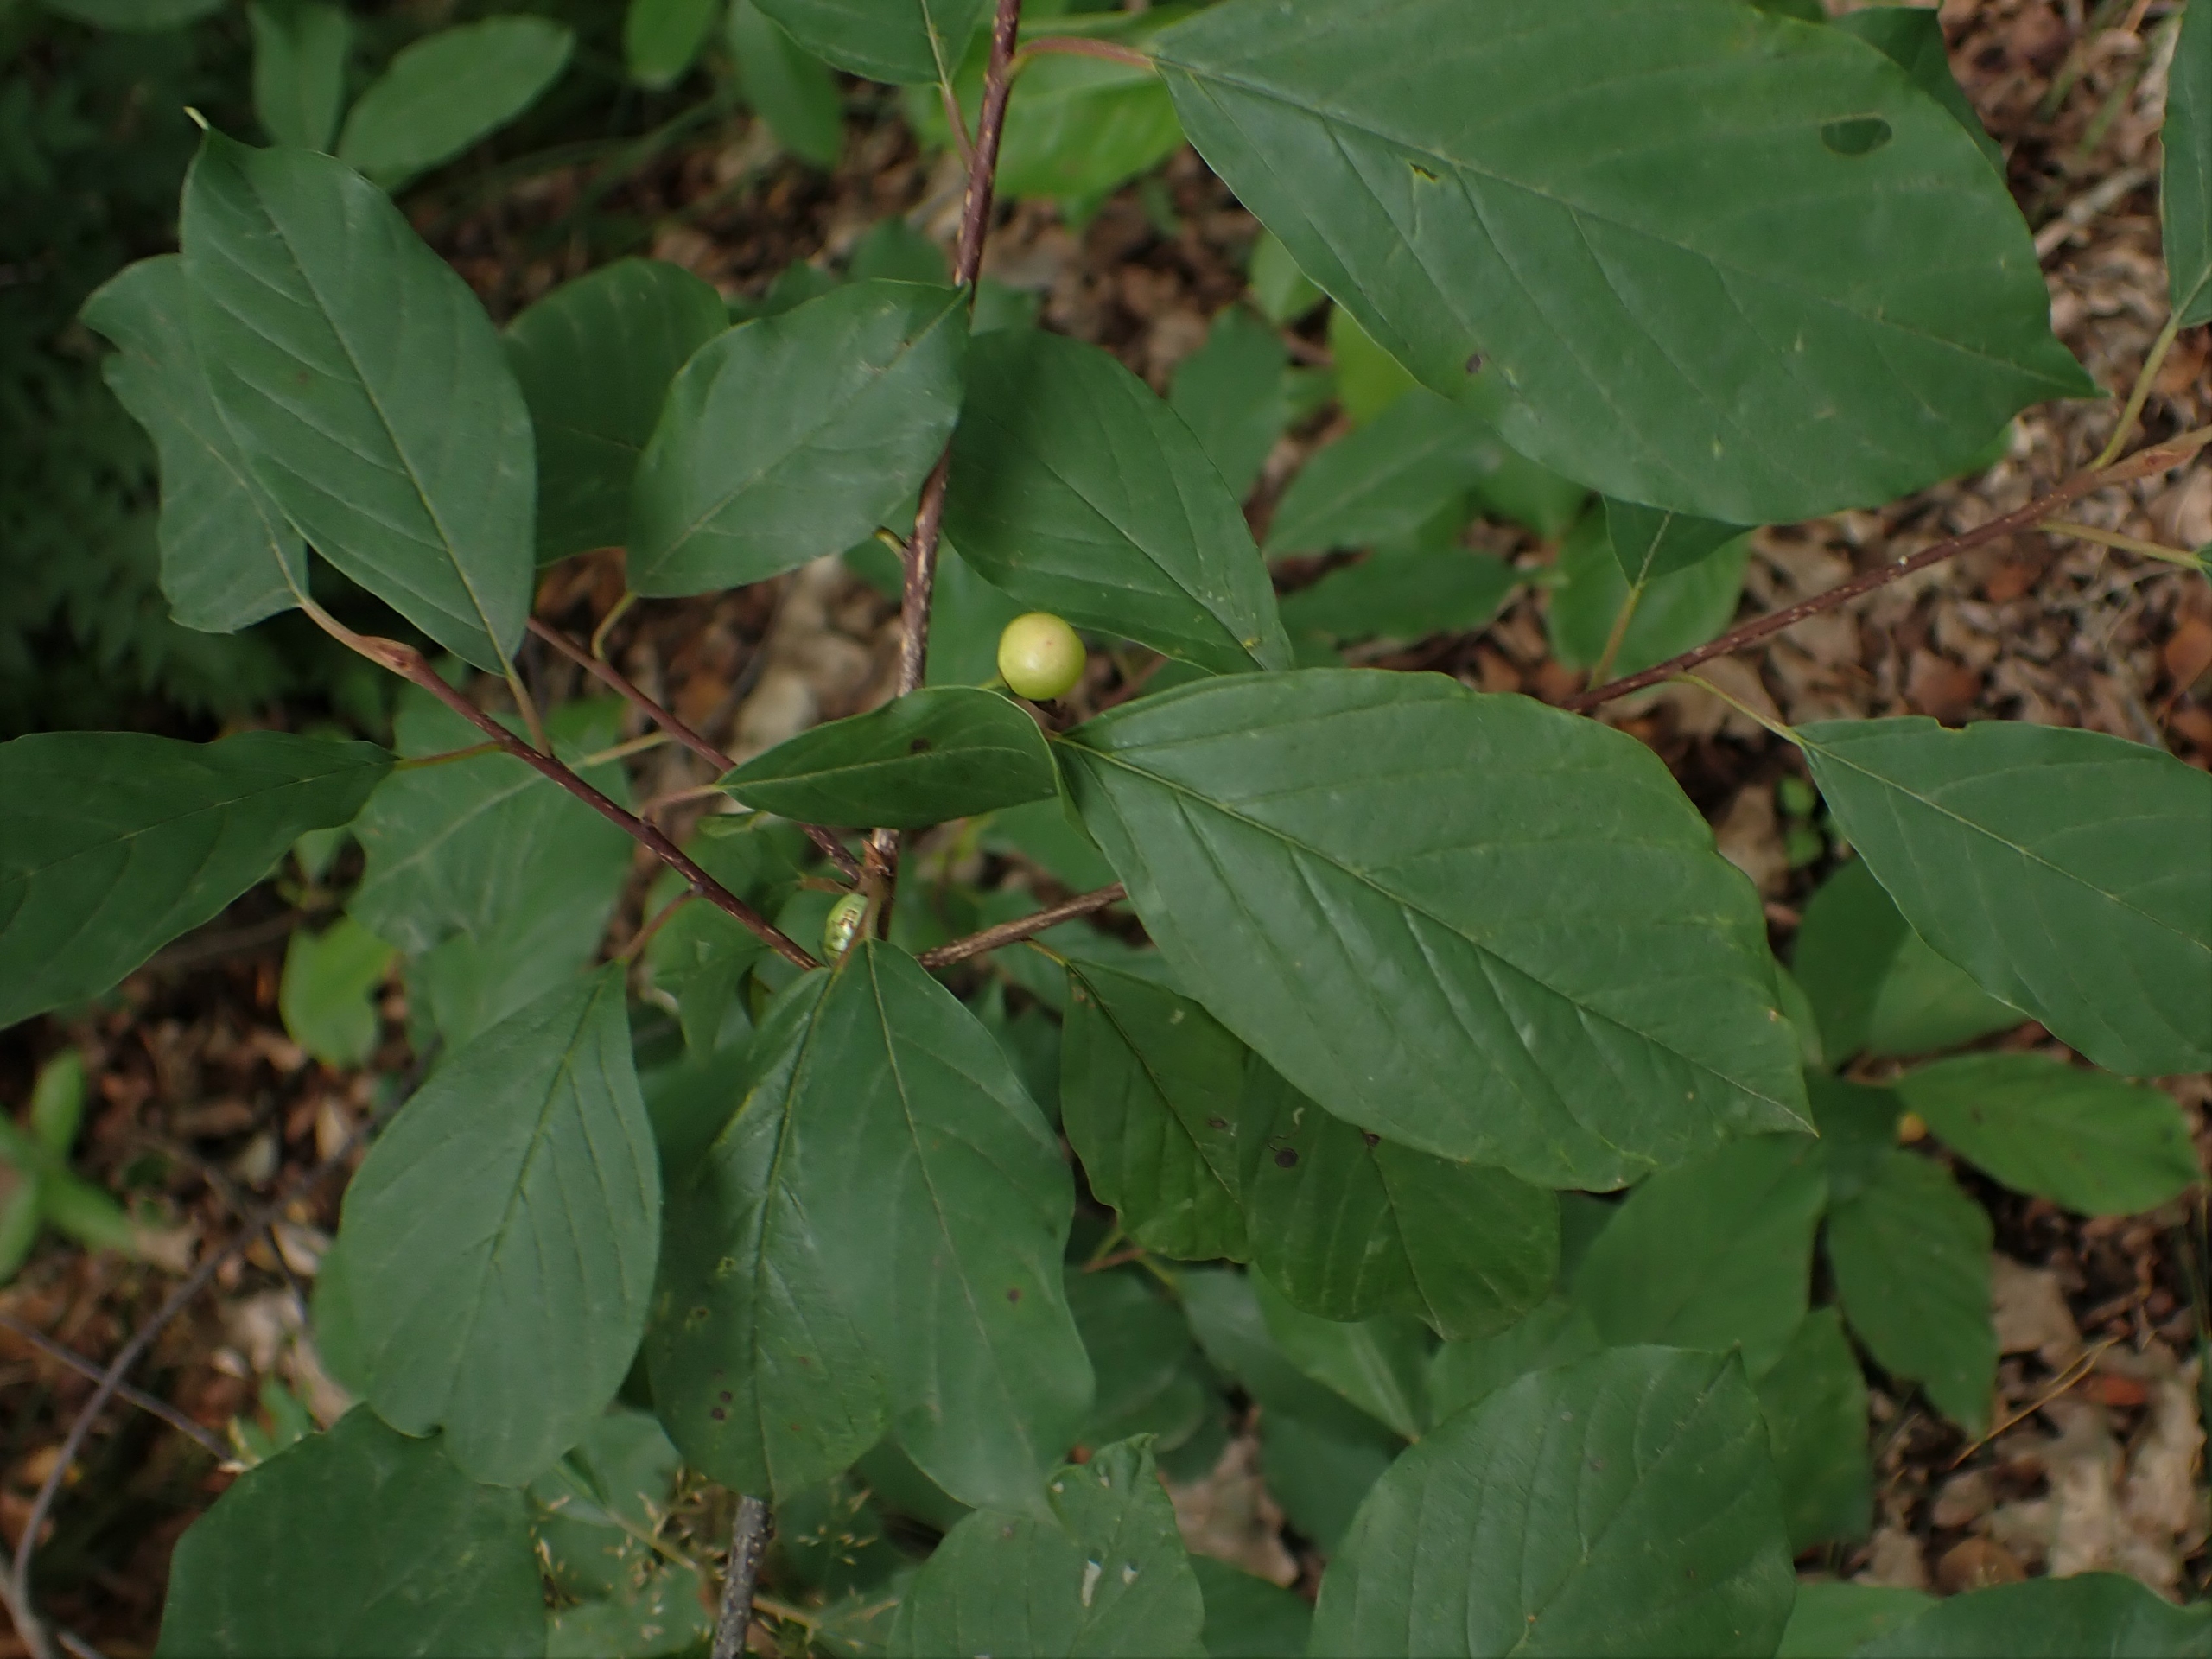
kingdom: Plantae
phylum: Tracheophyta
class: Magnoliopsida
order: Rosales
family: Rhamnaceae
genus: Frangula
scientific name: Frangula alnus
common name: Tørst
